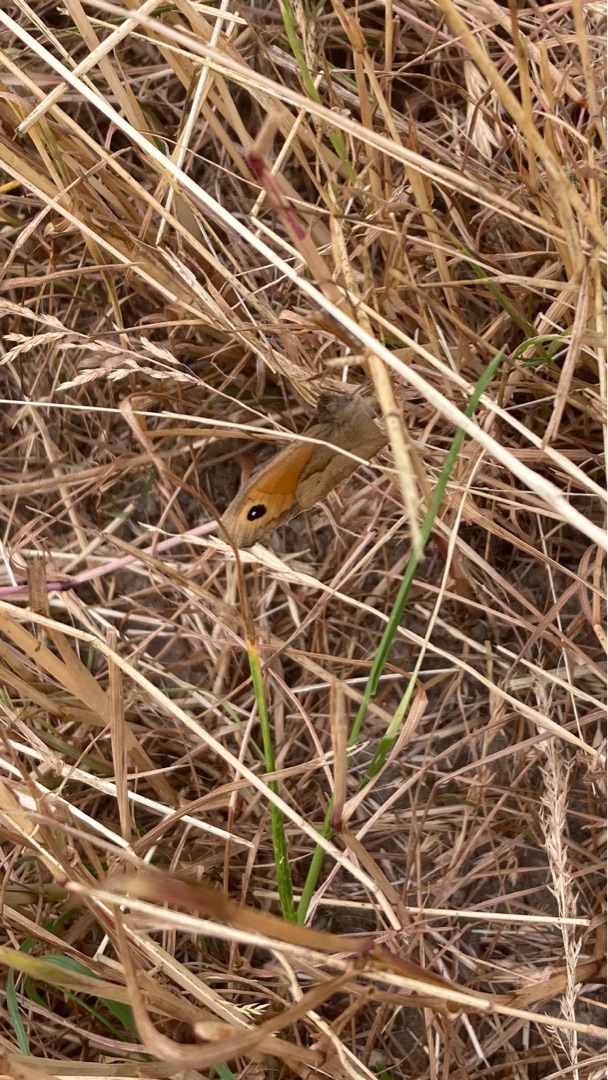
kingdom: Animalia
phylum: Arthropoda
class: Insecta
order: Lepidoptera
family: Nymphalidae
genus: Maniola
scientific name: Maniola jurtina
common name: Græsrandøje
